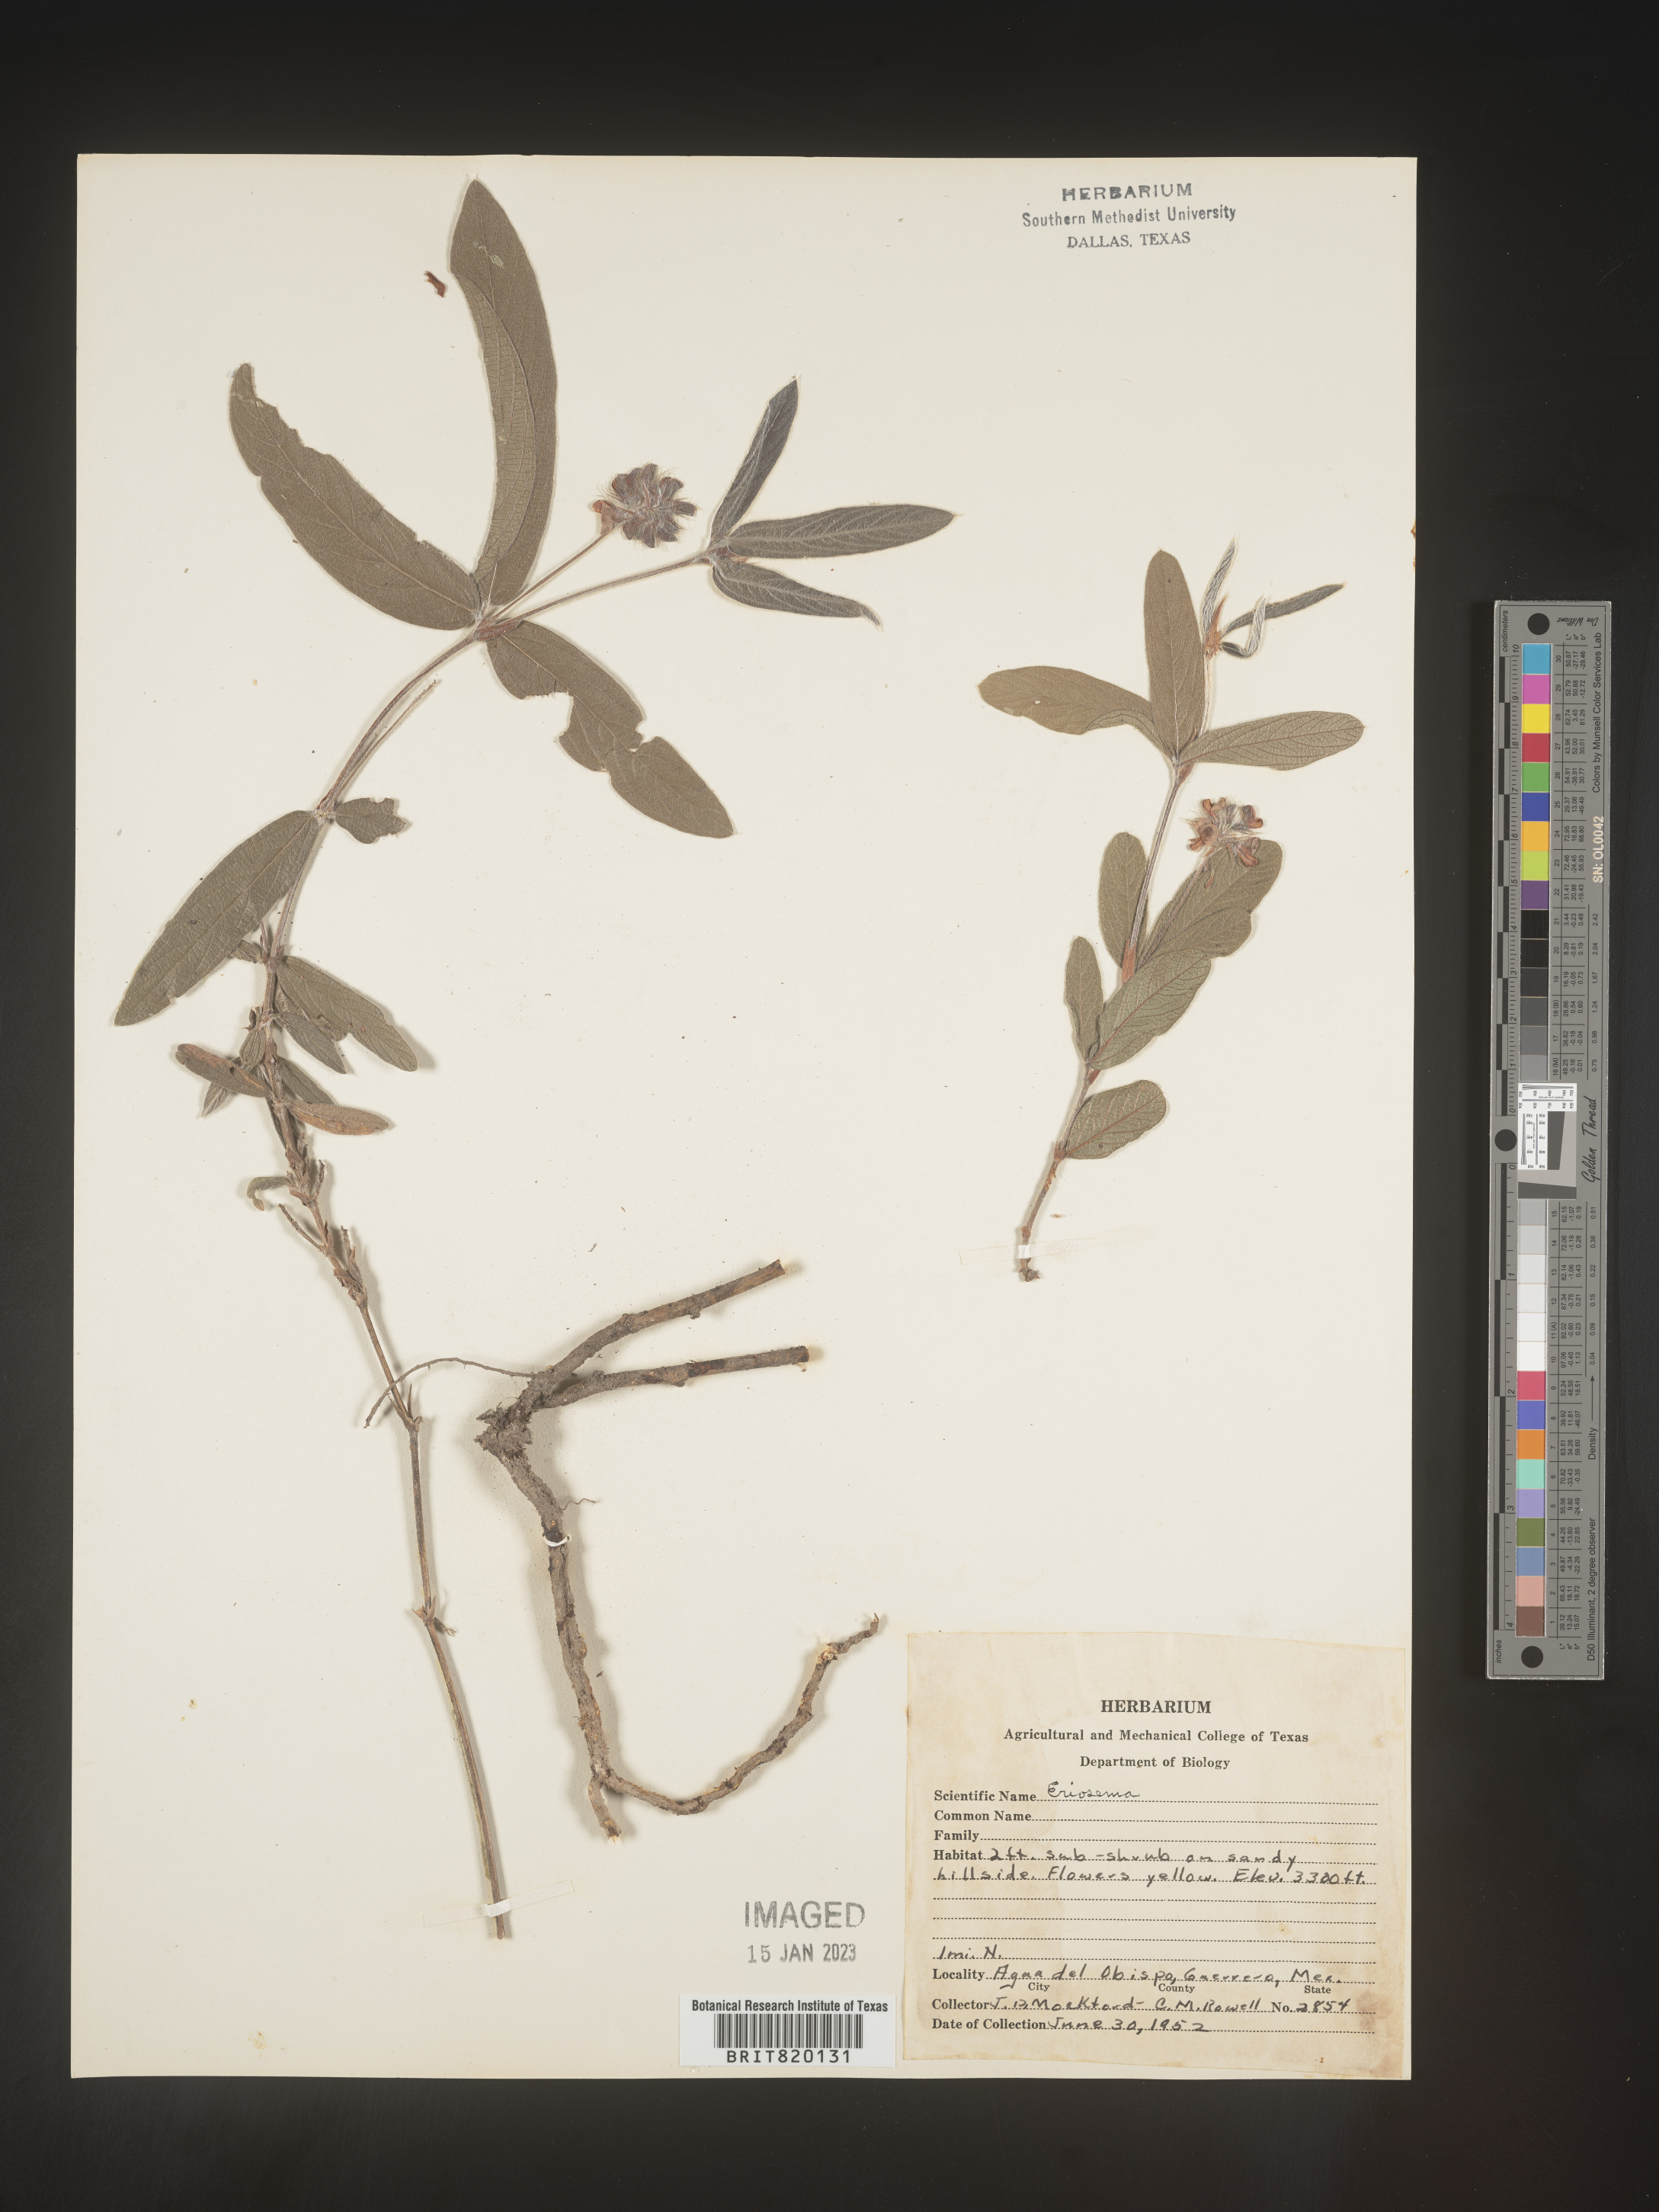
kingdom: Plantae
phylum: Tracheophyta
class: Magnoliopsida
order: Fabales
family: Fabaceae
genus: Eriosema
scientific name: Eriosema
